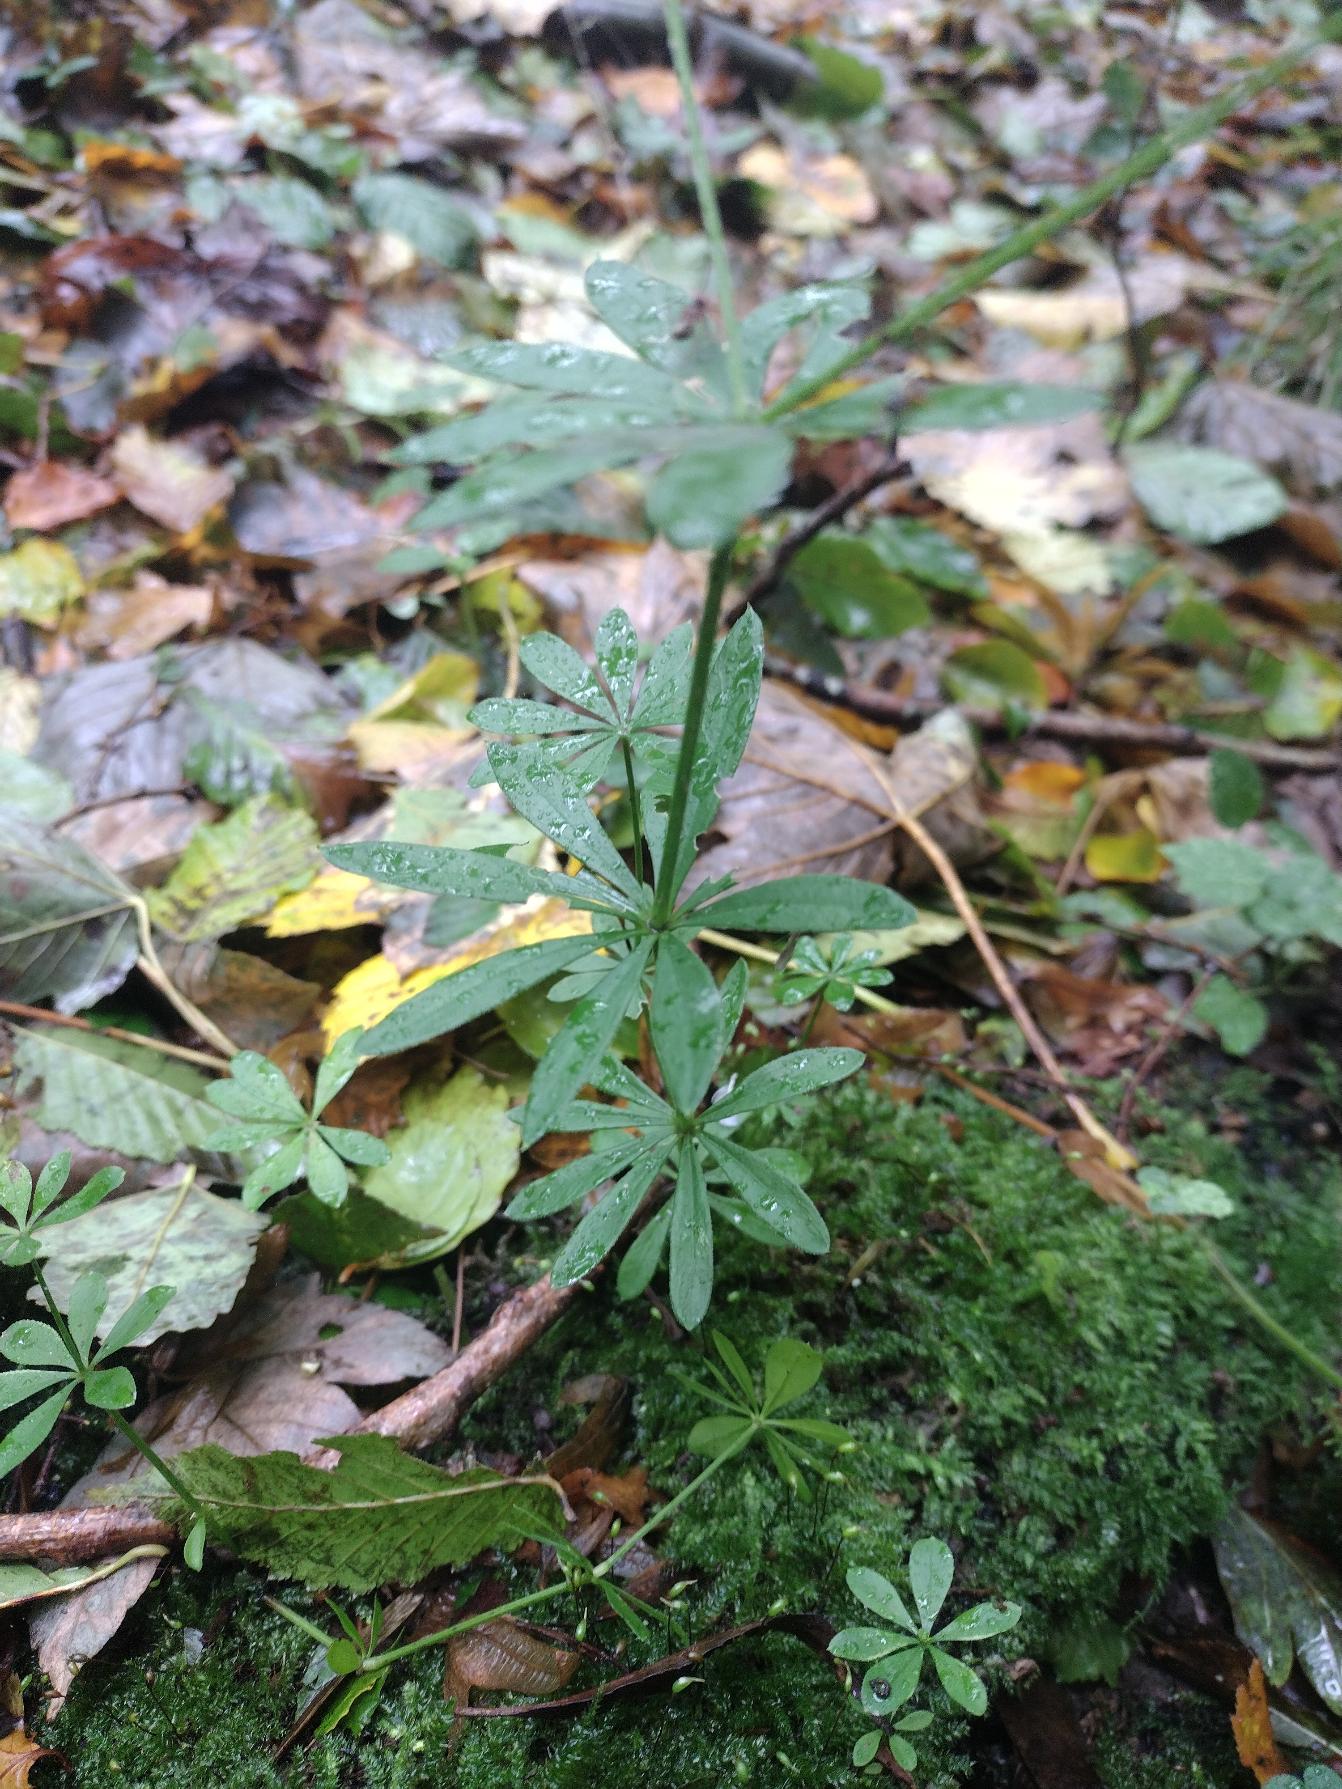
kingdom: Plantae
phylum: Tracheophyta
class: Magnoliopsida
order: Gentianales
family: Rubiaceae
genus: Galium
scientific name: Galium odoratum
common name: Skovmærke
